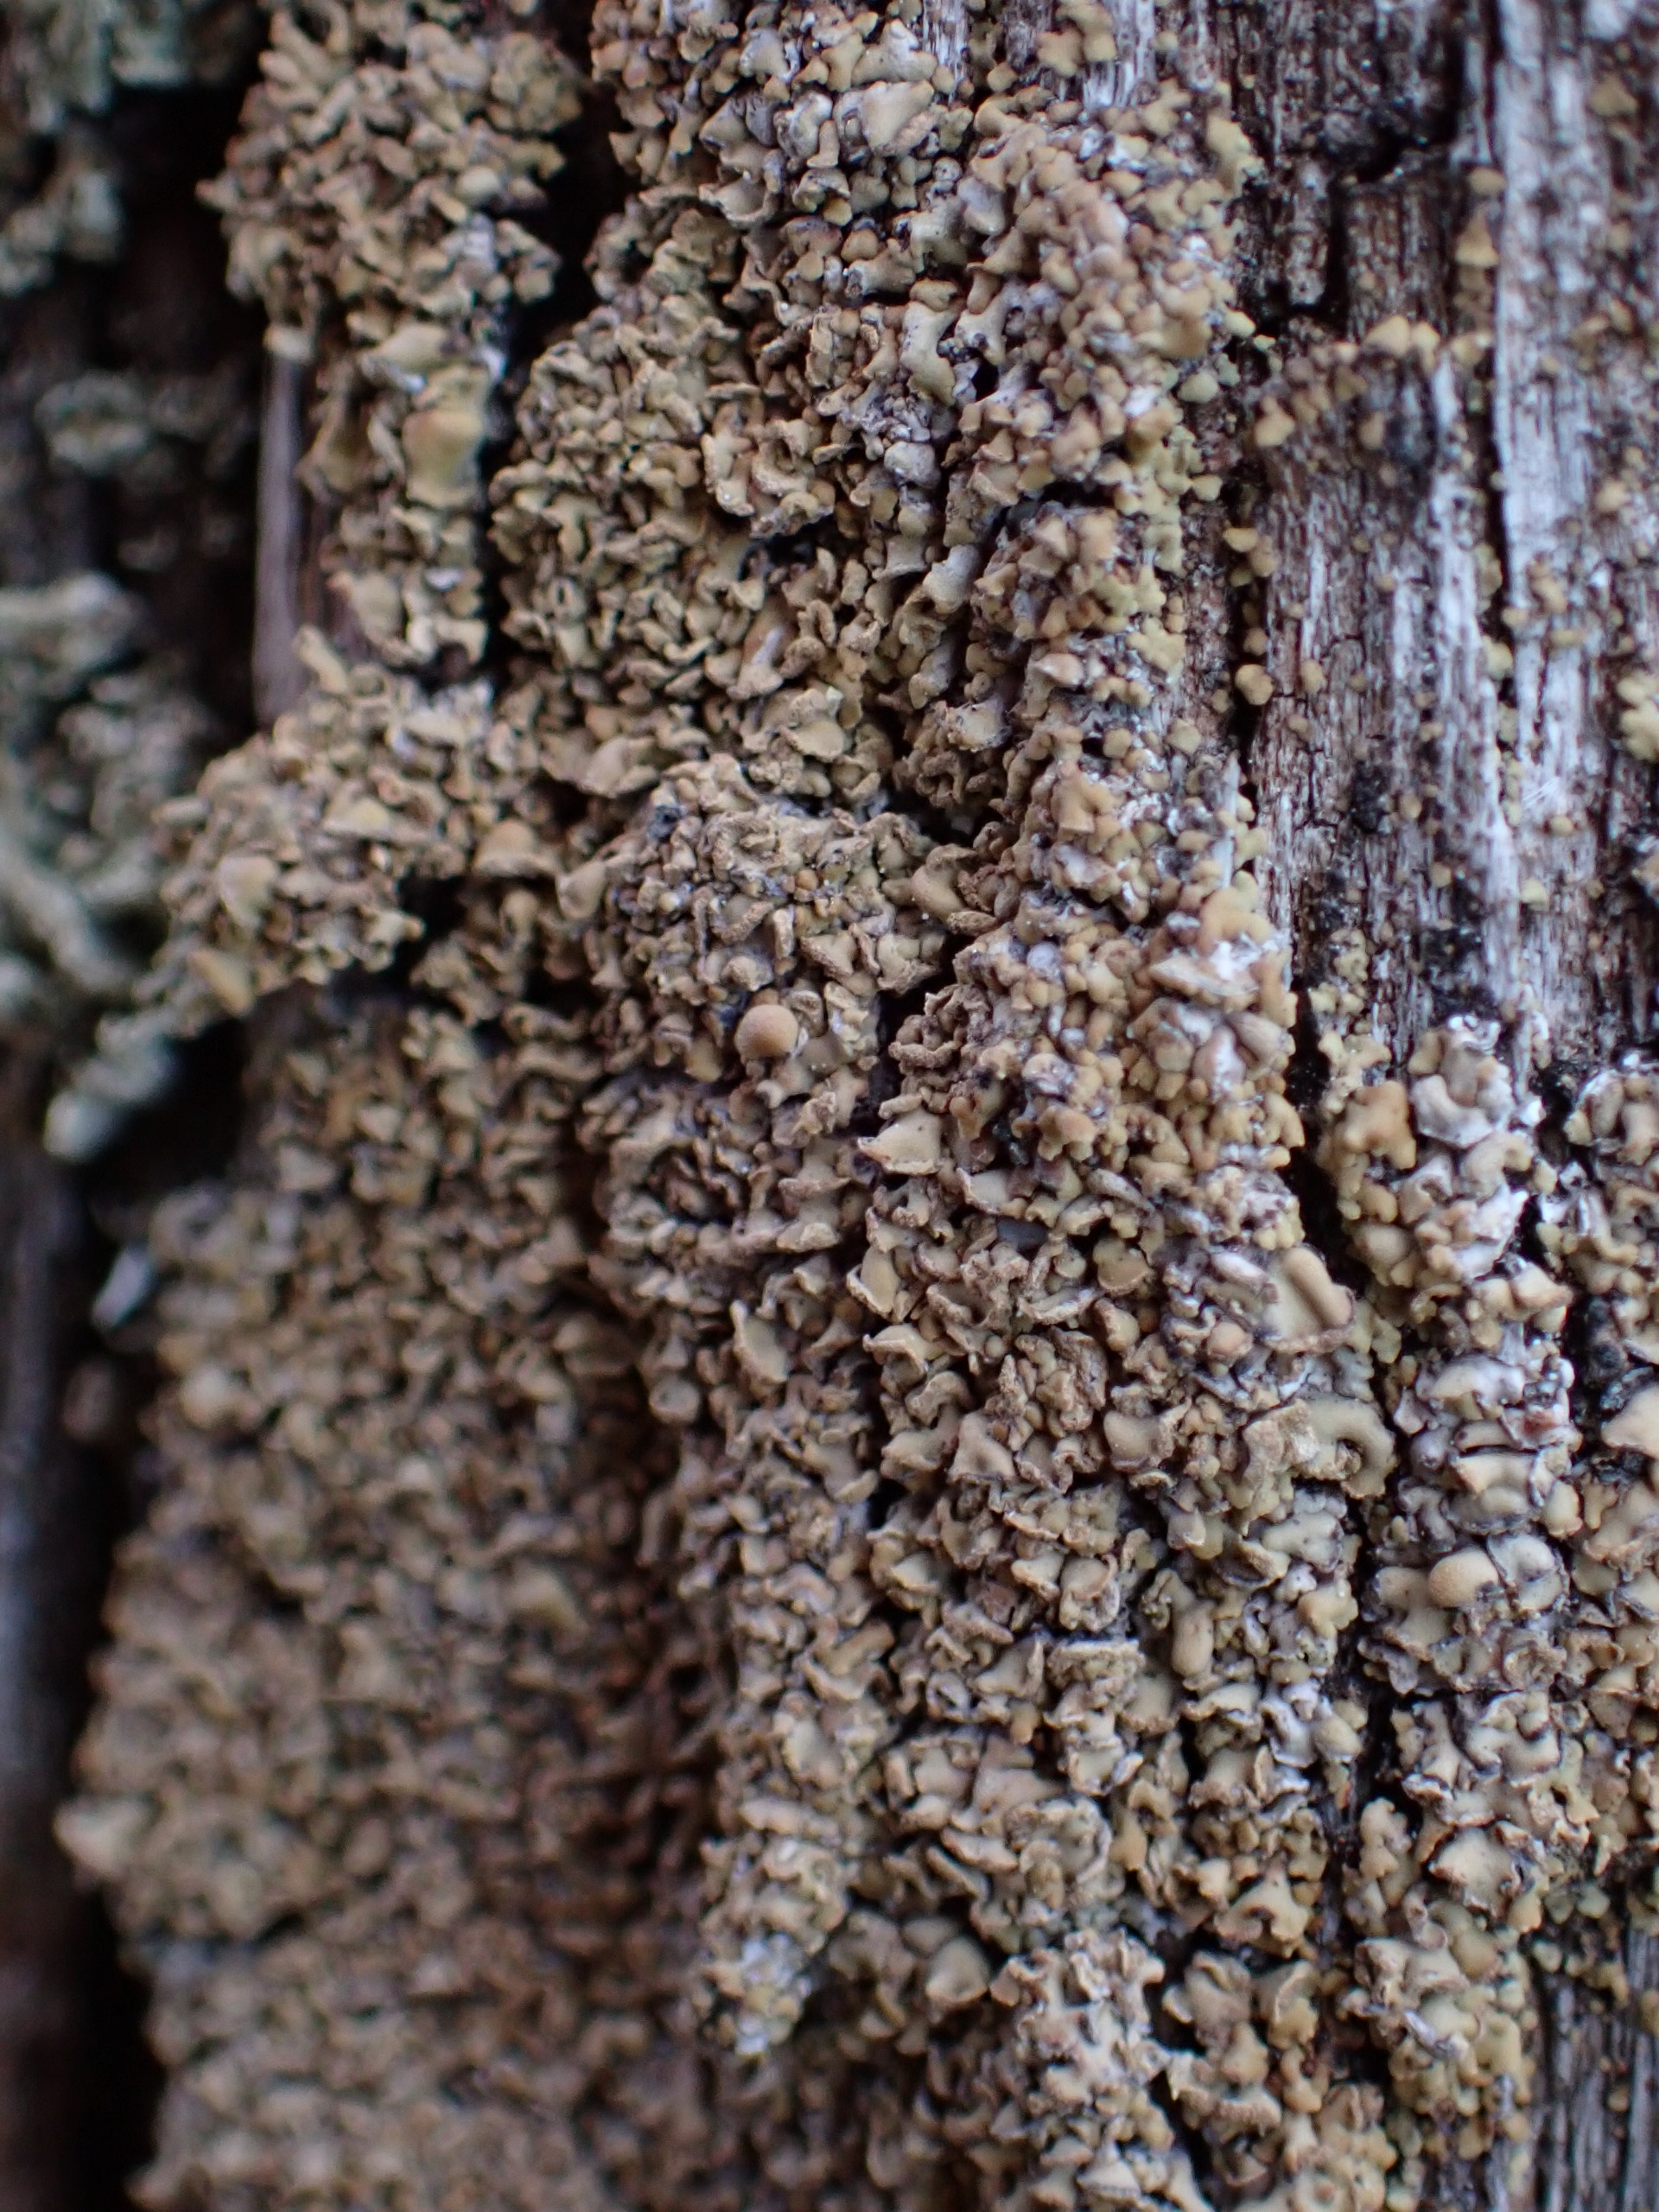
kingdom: Fungi
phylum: Ascomycota
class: Lecanoromycetes
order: Umbilicariales
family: Ophioparmaceae
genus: Hypocenomyce
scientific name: Hypocenomyce scalaris
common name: Småskællet muslinglav
